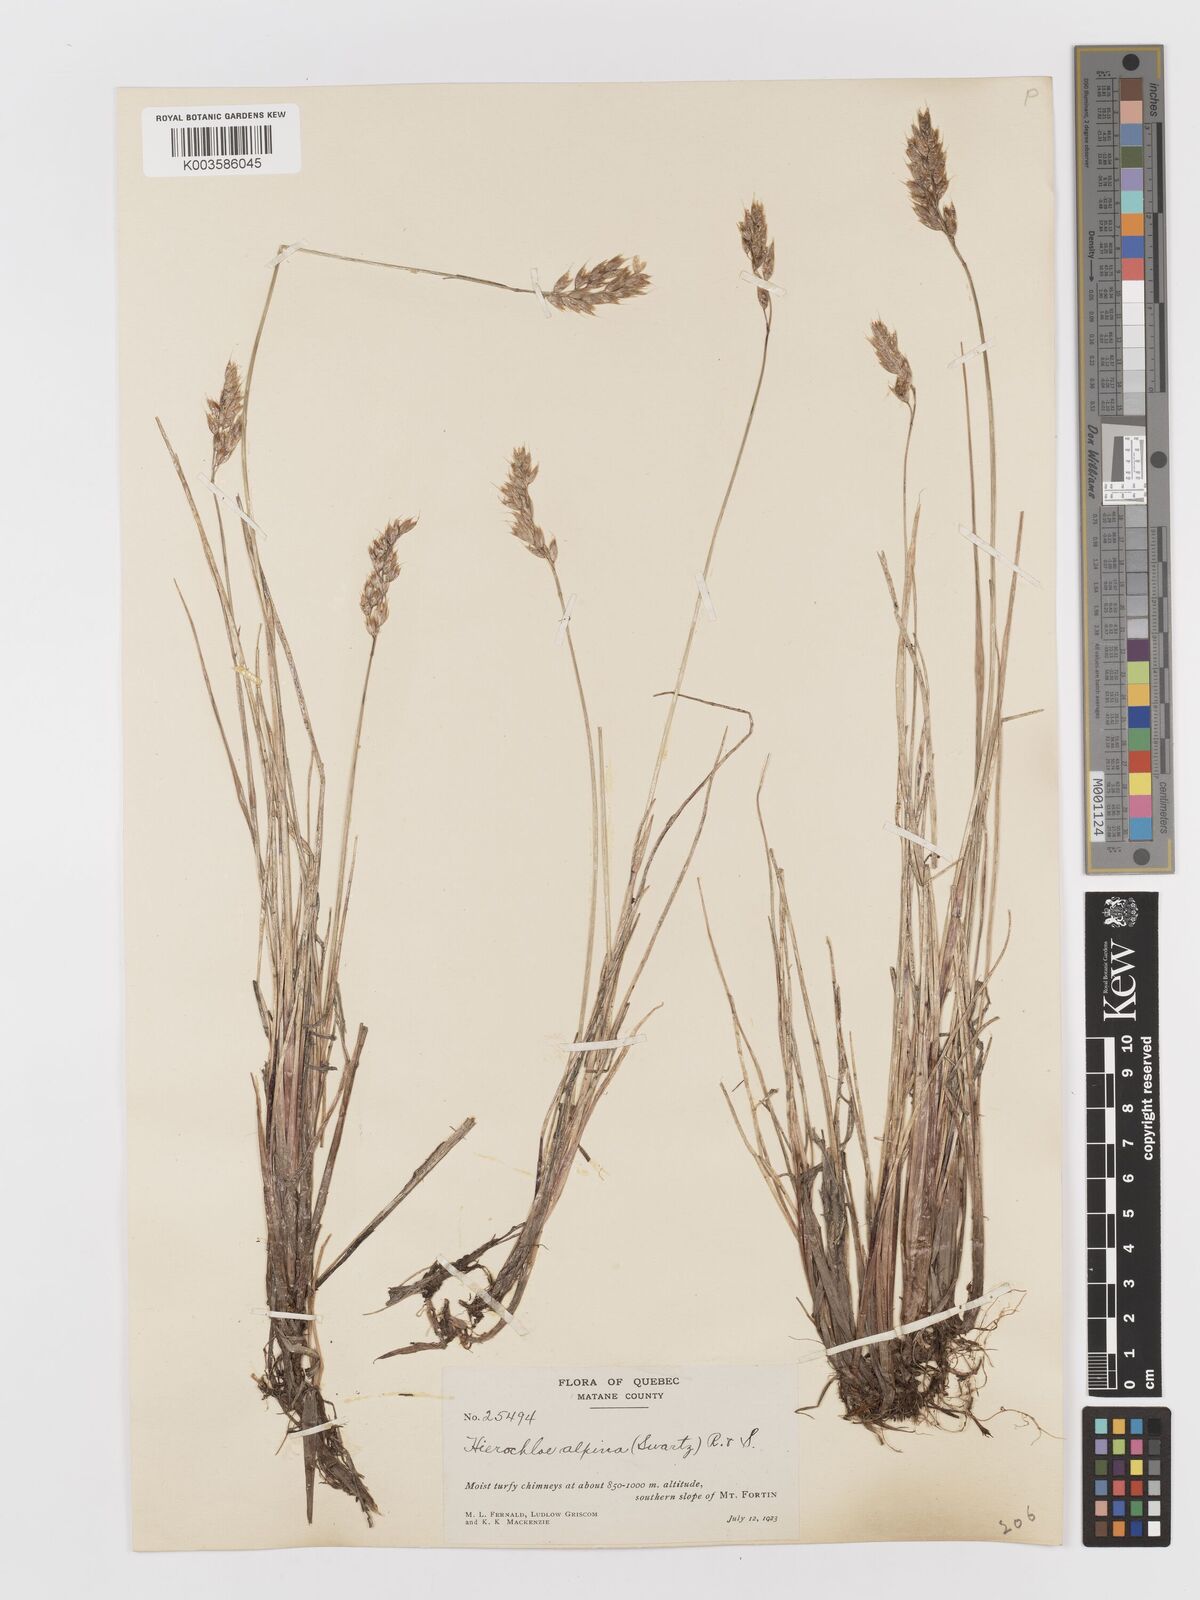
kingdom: Plantae
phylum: Tracheophyta
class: Liliopsida
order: Poales
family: Poaceae
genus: Anthoxanthum
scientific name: Anthoxanthum monticola
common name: Alpine sweetgrass
